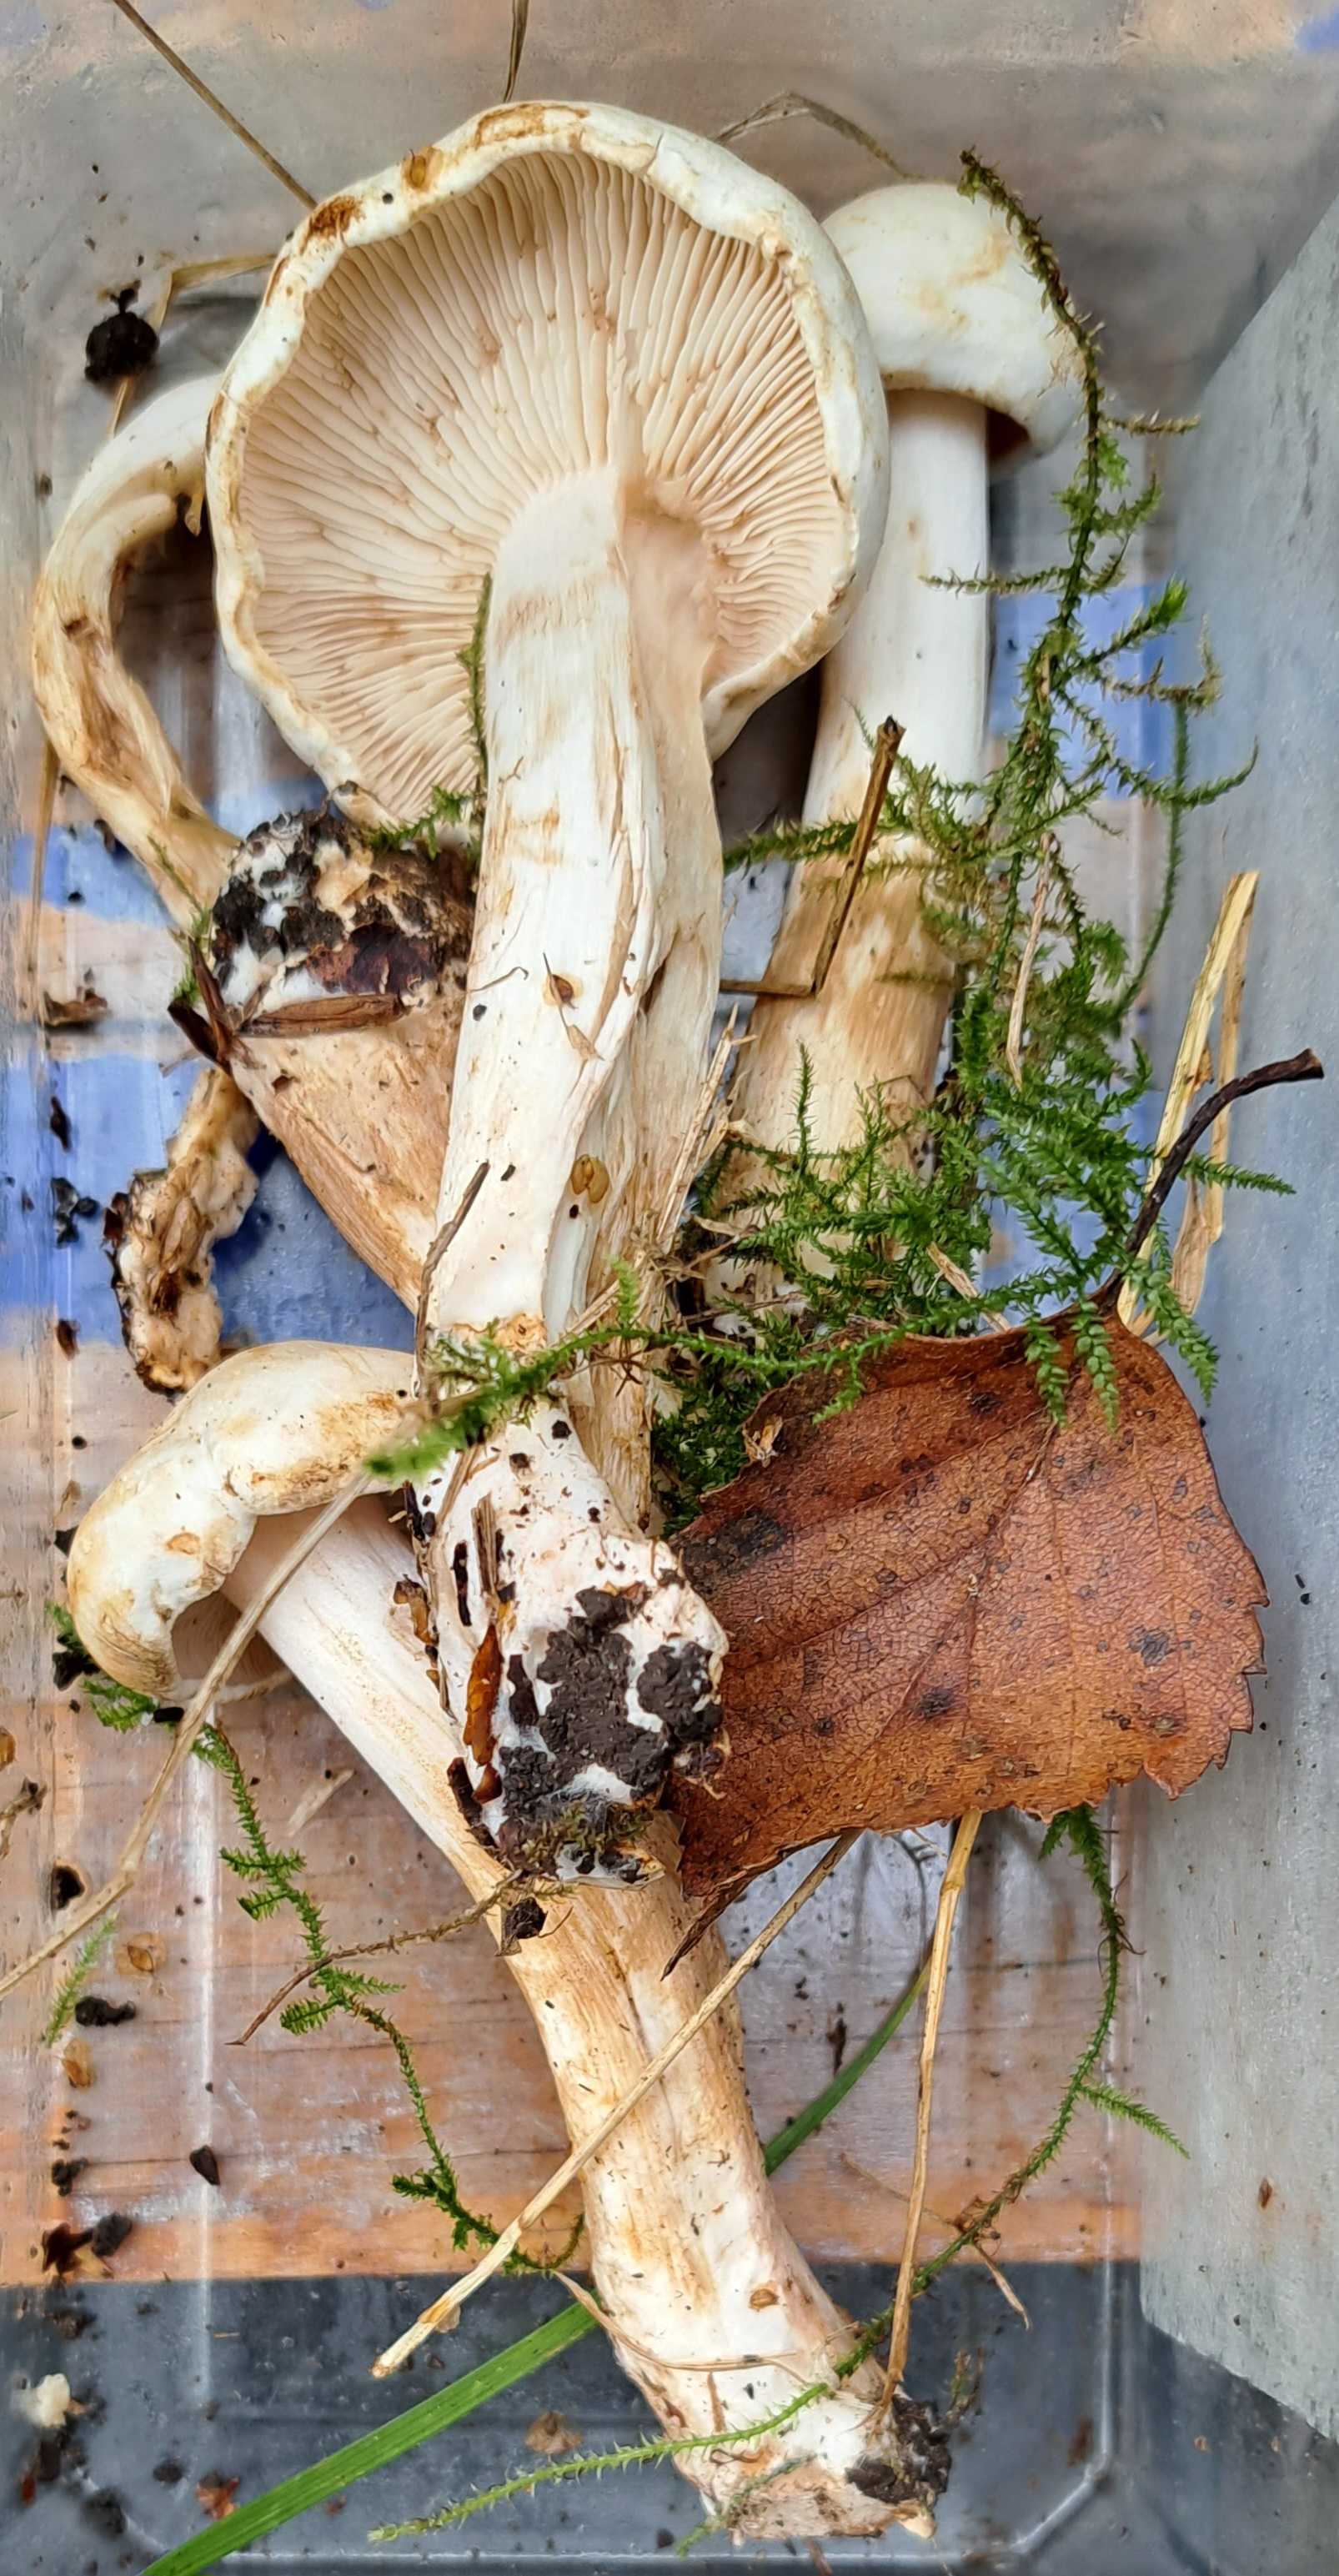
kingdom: Fungi
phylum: Basidiomycota
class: Agaricomycetes
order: Agaricales
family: Tricholomataceae
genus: Tricholoma
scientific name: Tricholoma stiparophyllum
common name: hvid ridderhat
